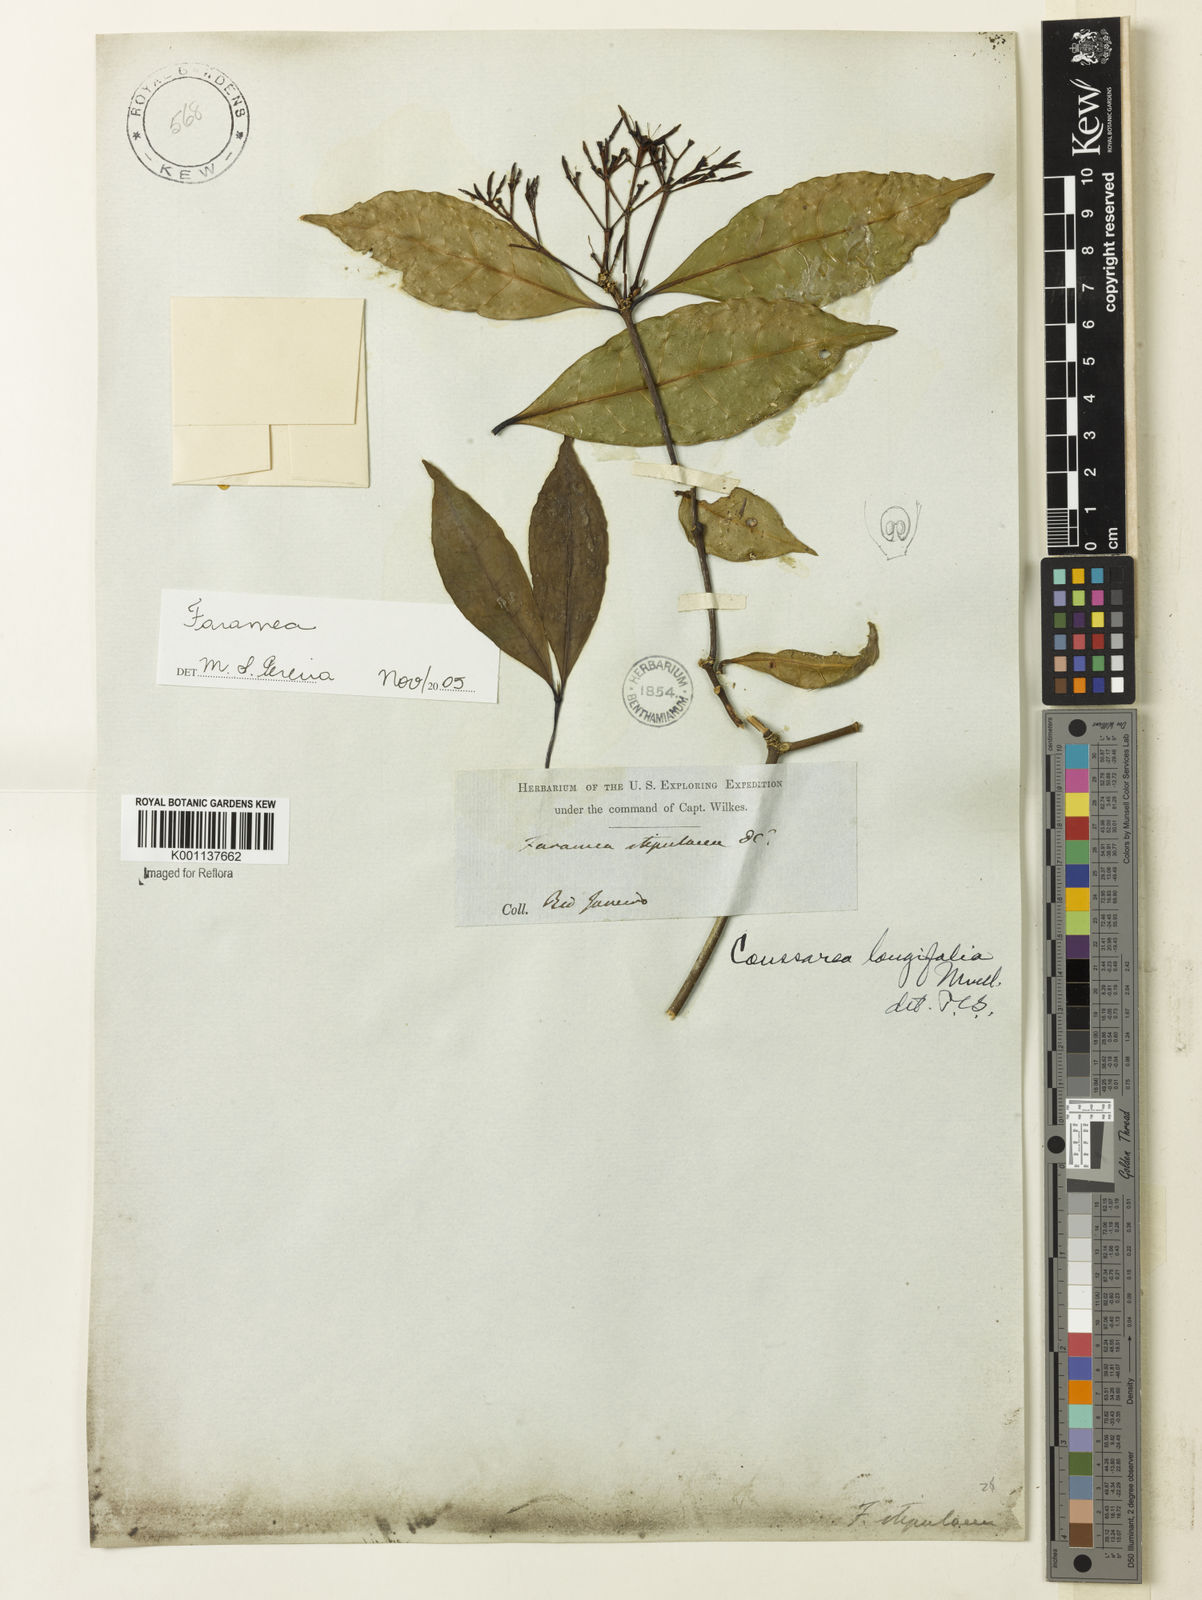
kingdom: Plantae
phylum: Tracheophyta
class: Magnoliopsida
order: Gentianales
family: Rubiaceae
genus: Coussarea
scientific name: Coussarea
